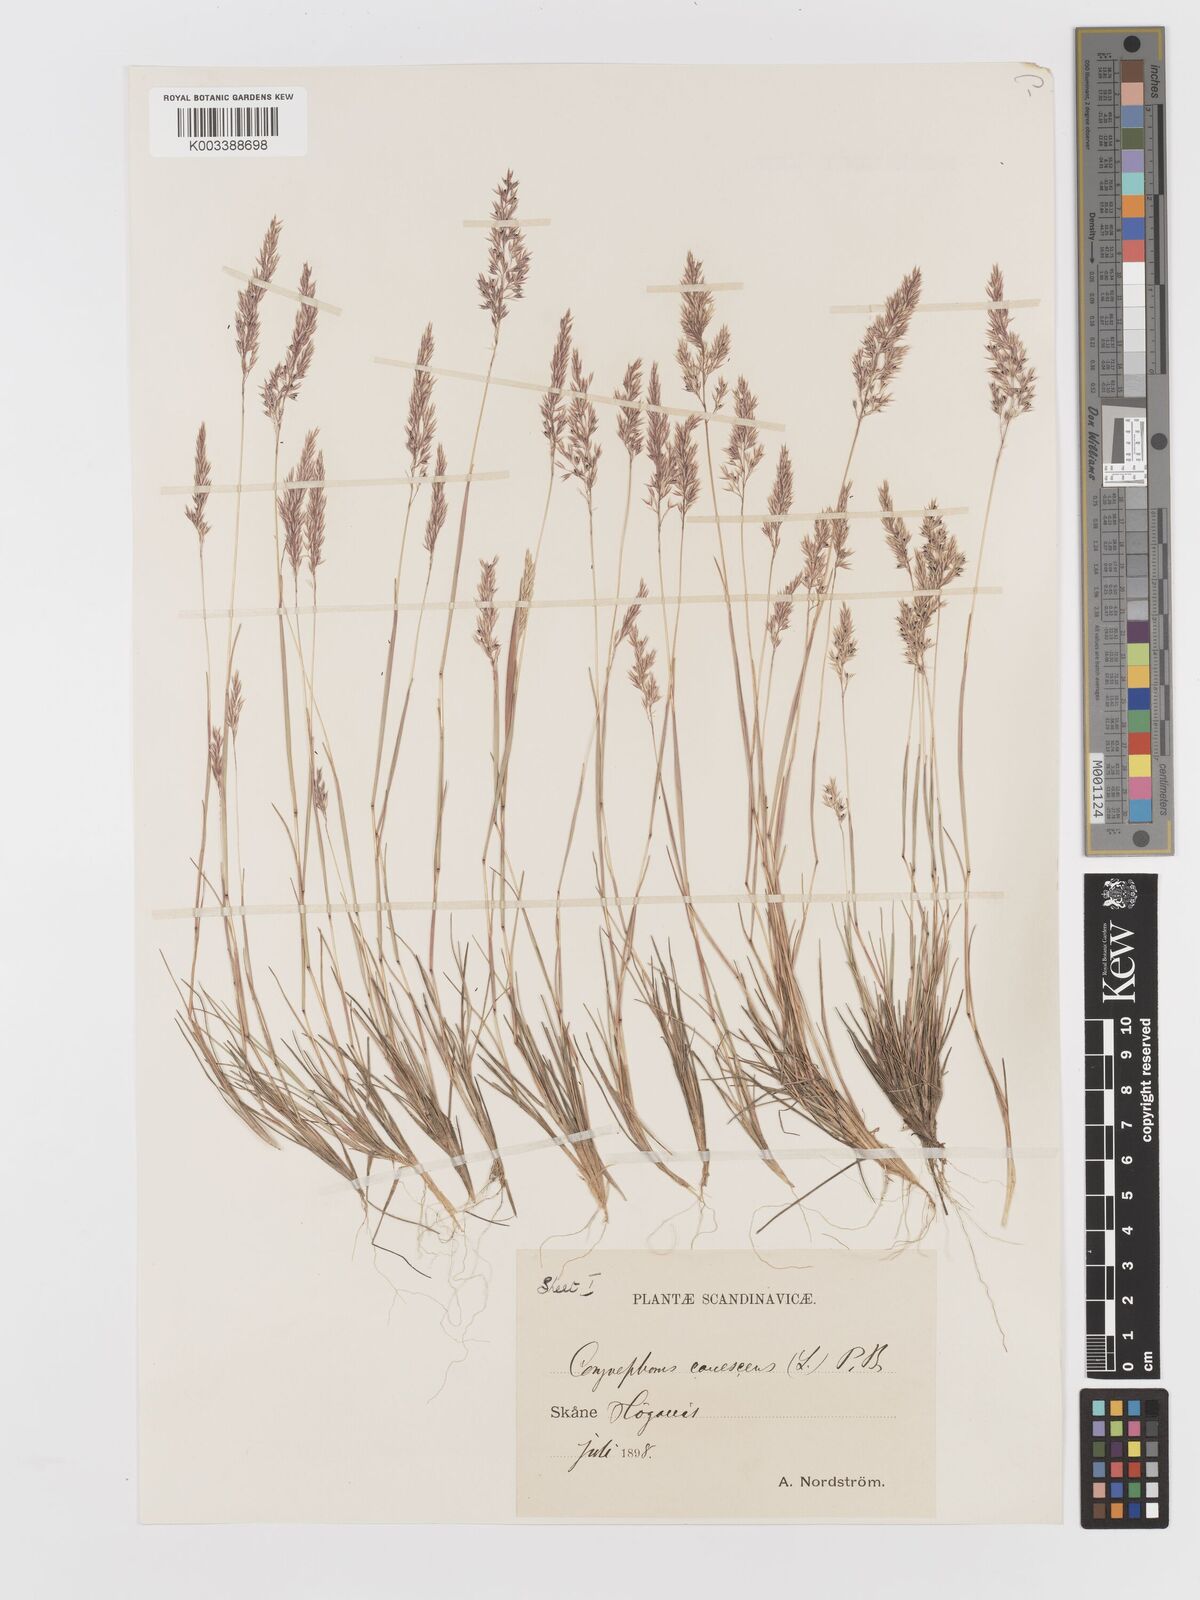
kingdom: Plantae
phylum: Tracheophyta
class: Liliopsida
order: Poales
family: Poaceae
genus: Corynephorus
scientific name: Corynephorus canescens
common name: Grey hair-grass
